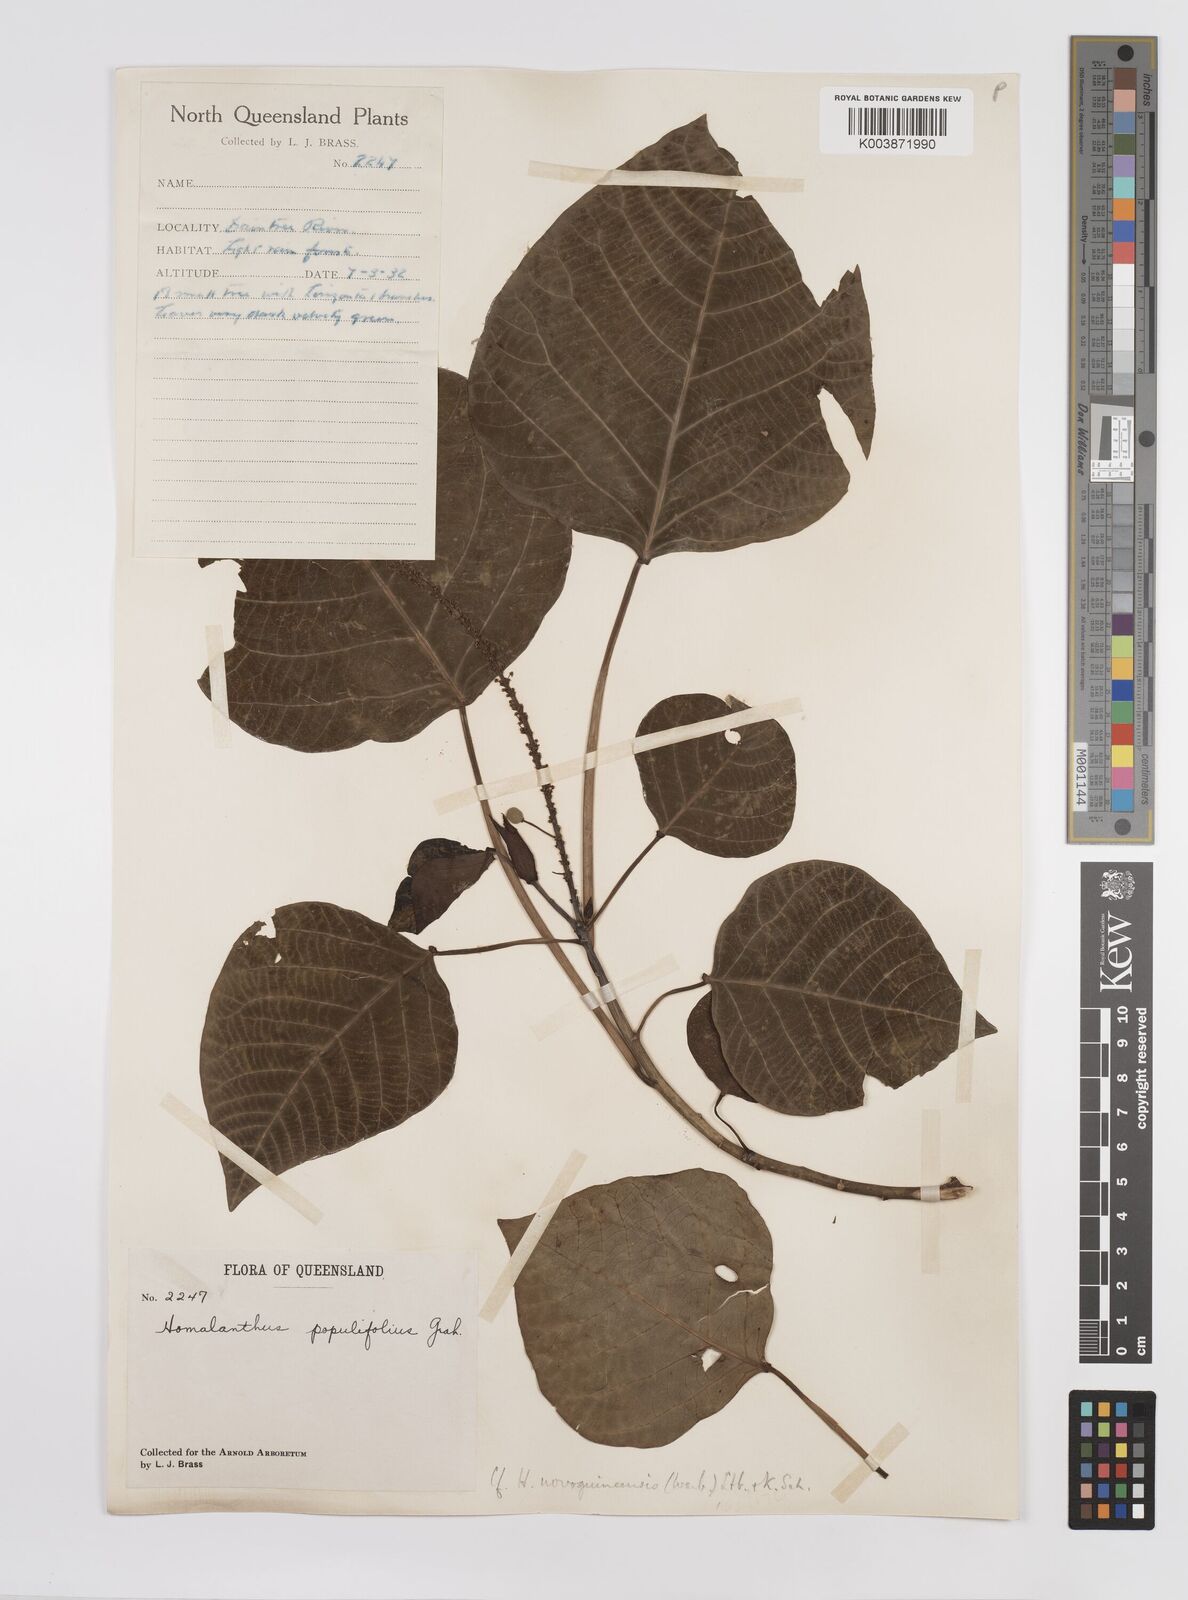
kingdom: Plantae
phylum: Tracheophyta
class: Magnoliopsida
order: Malpighiales
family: Euphorbiaceae
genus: Homalanthus
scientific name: Homalanthus novoguineensis
